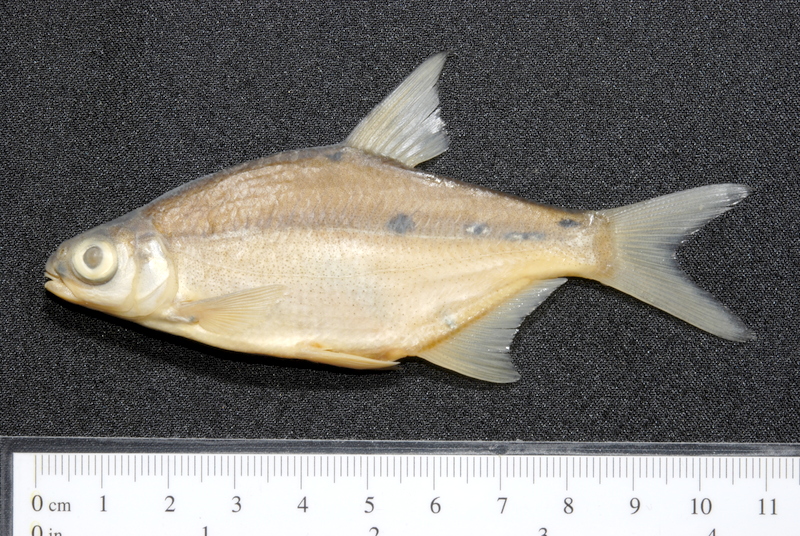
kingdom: Animalia
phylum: Chordata
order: Cypriniformes
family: Cyprinidae
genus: Blicca
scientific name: Blicca bjoerkna
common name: White bream
